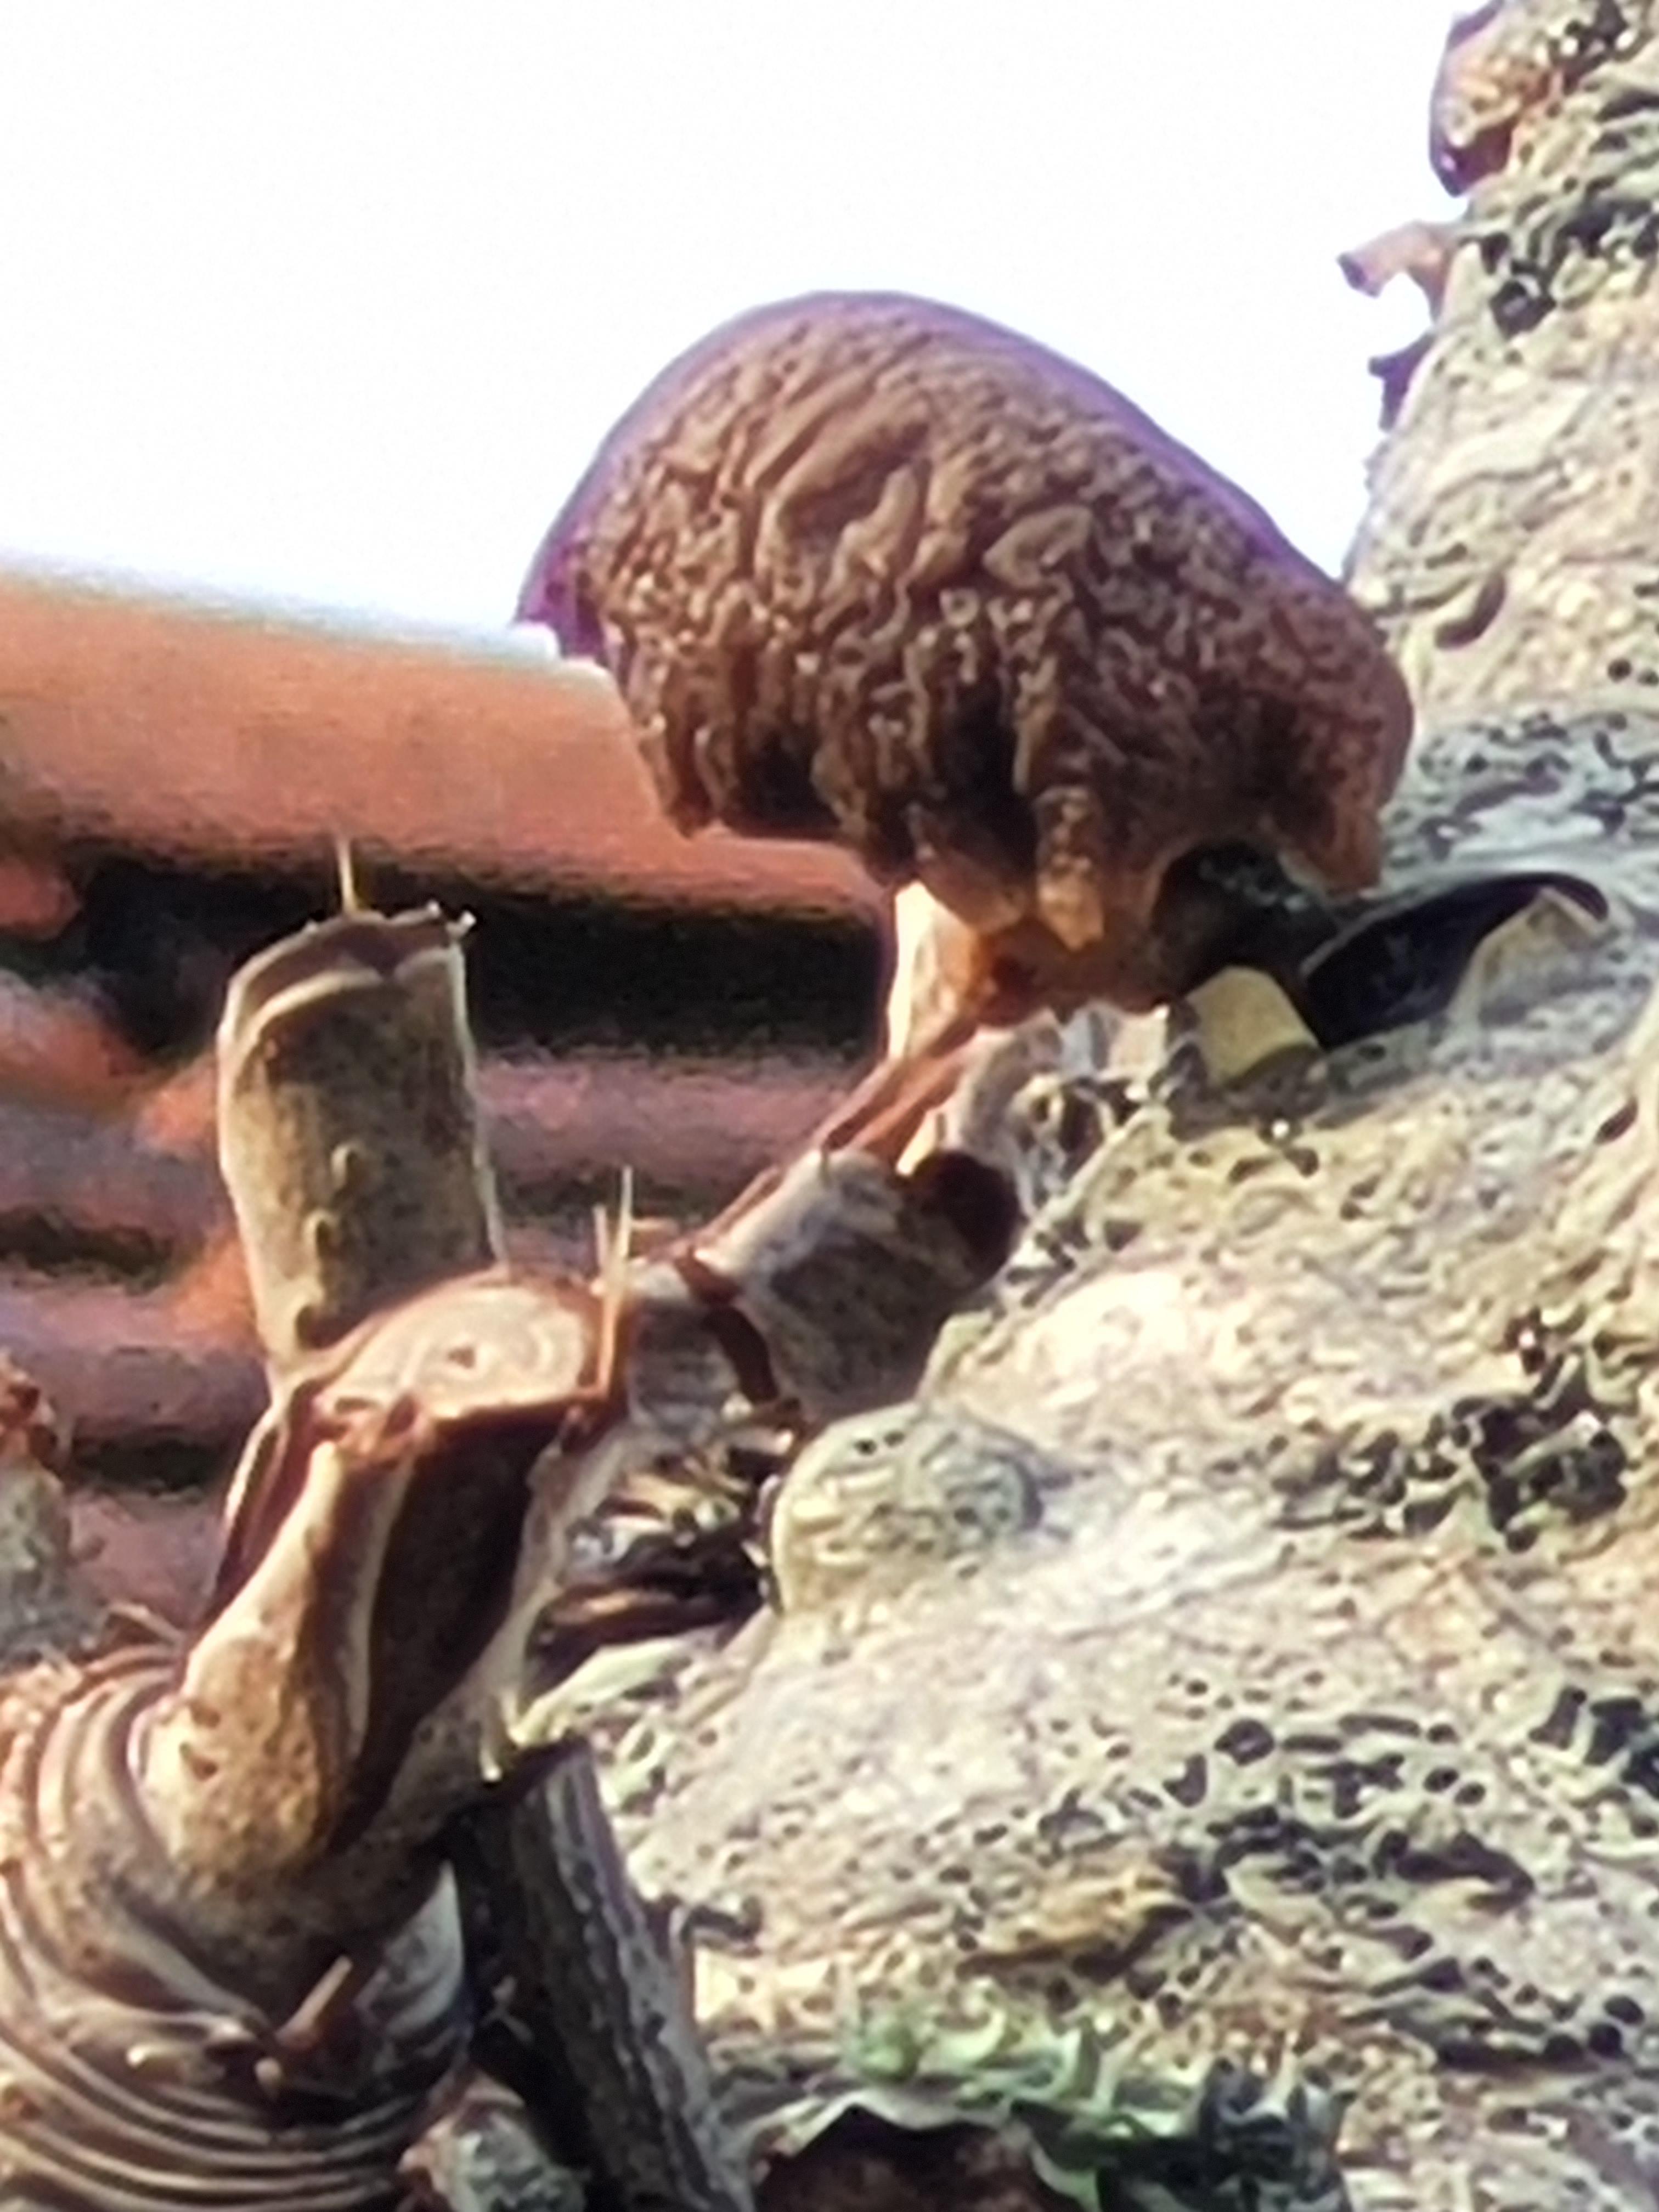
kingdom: Fungi
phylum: Basidiomycota
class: Agaricomycetes
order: Agaricales
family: Pleurotaceae
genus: Pleurotus
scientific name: Pleurotus ostreatus
